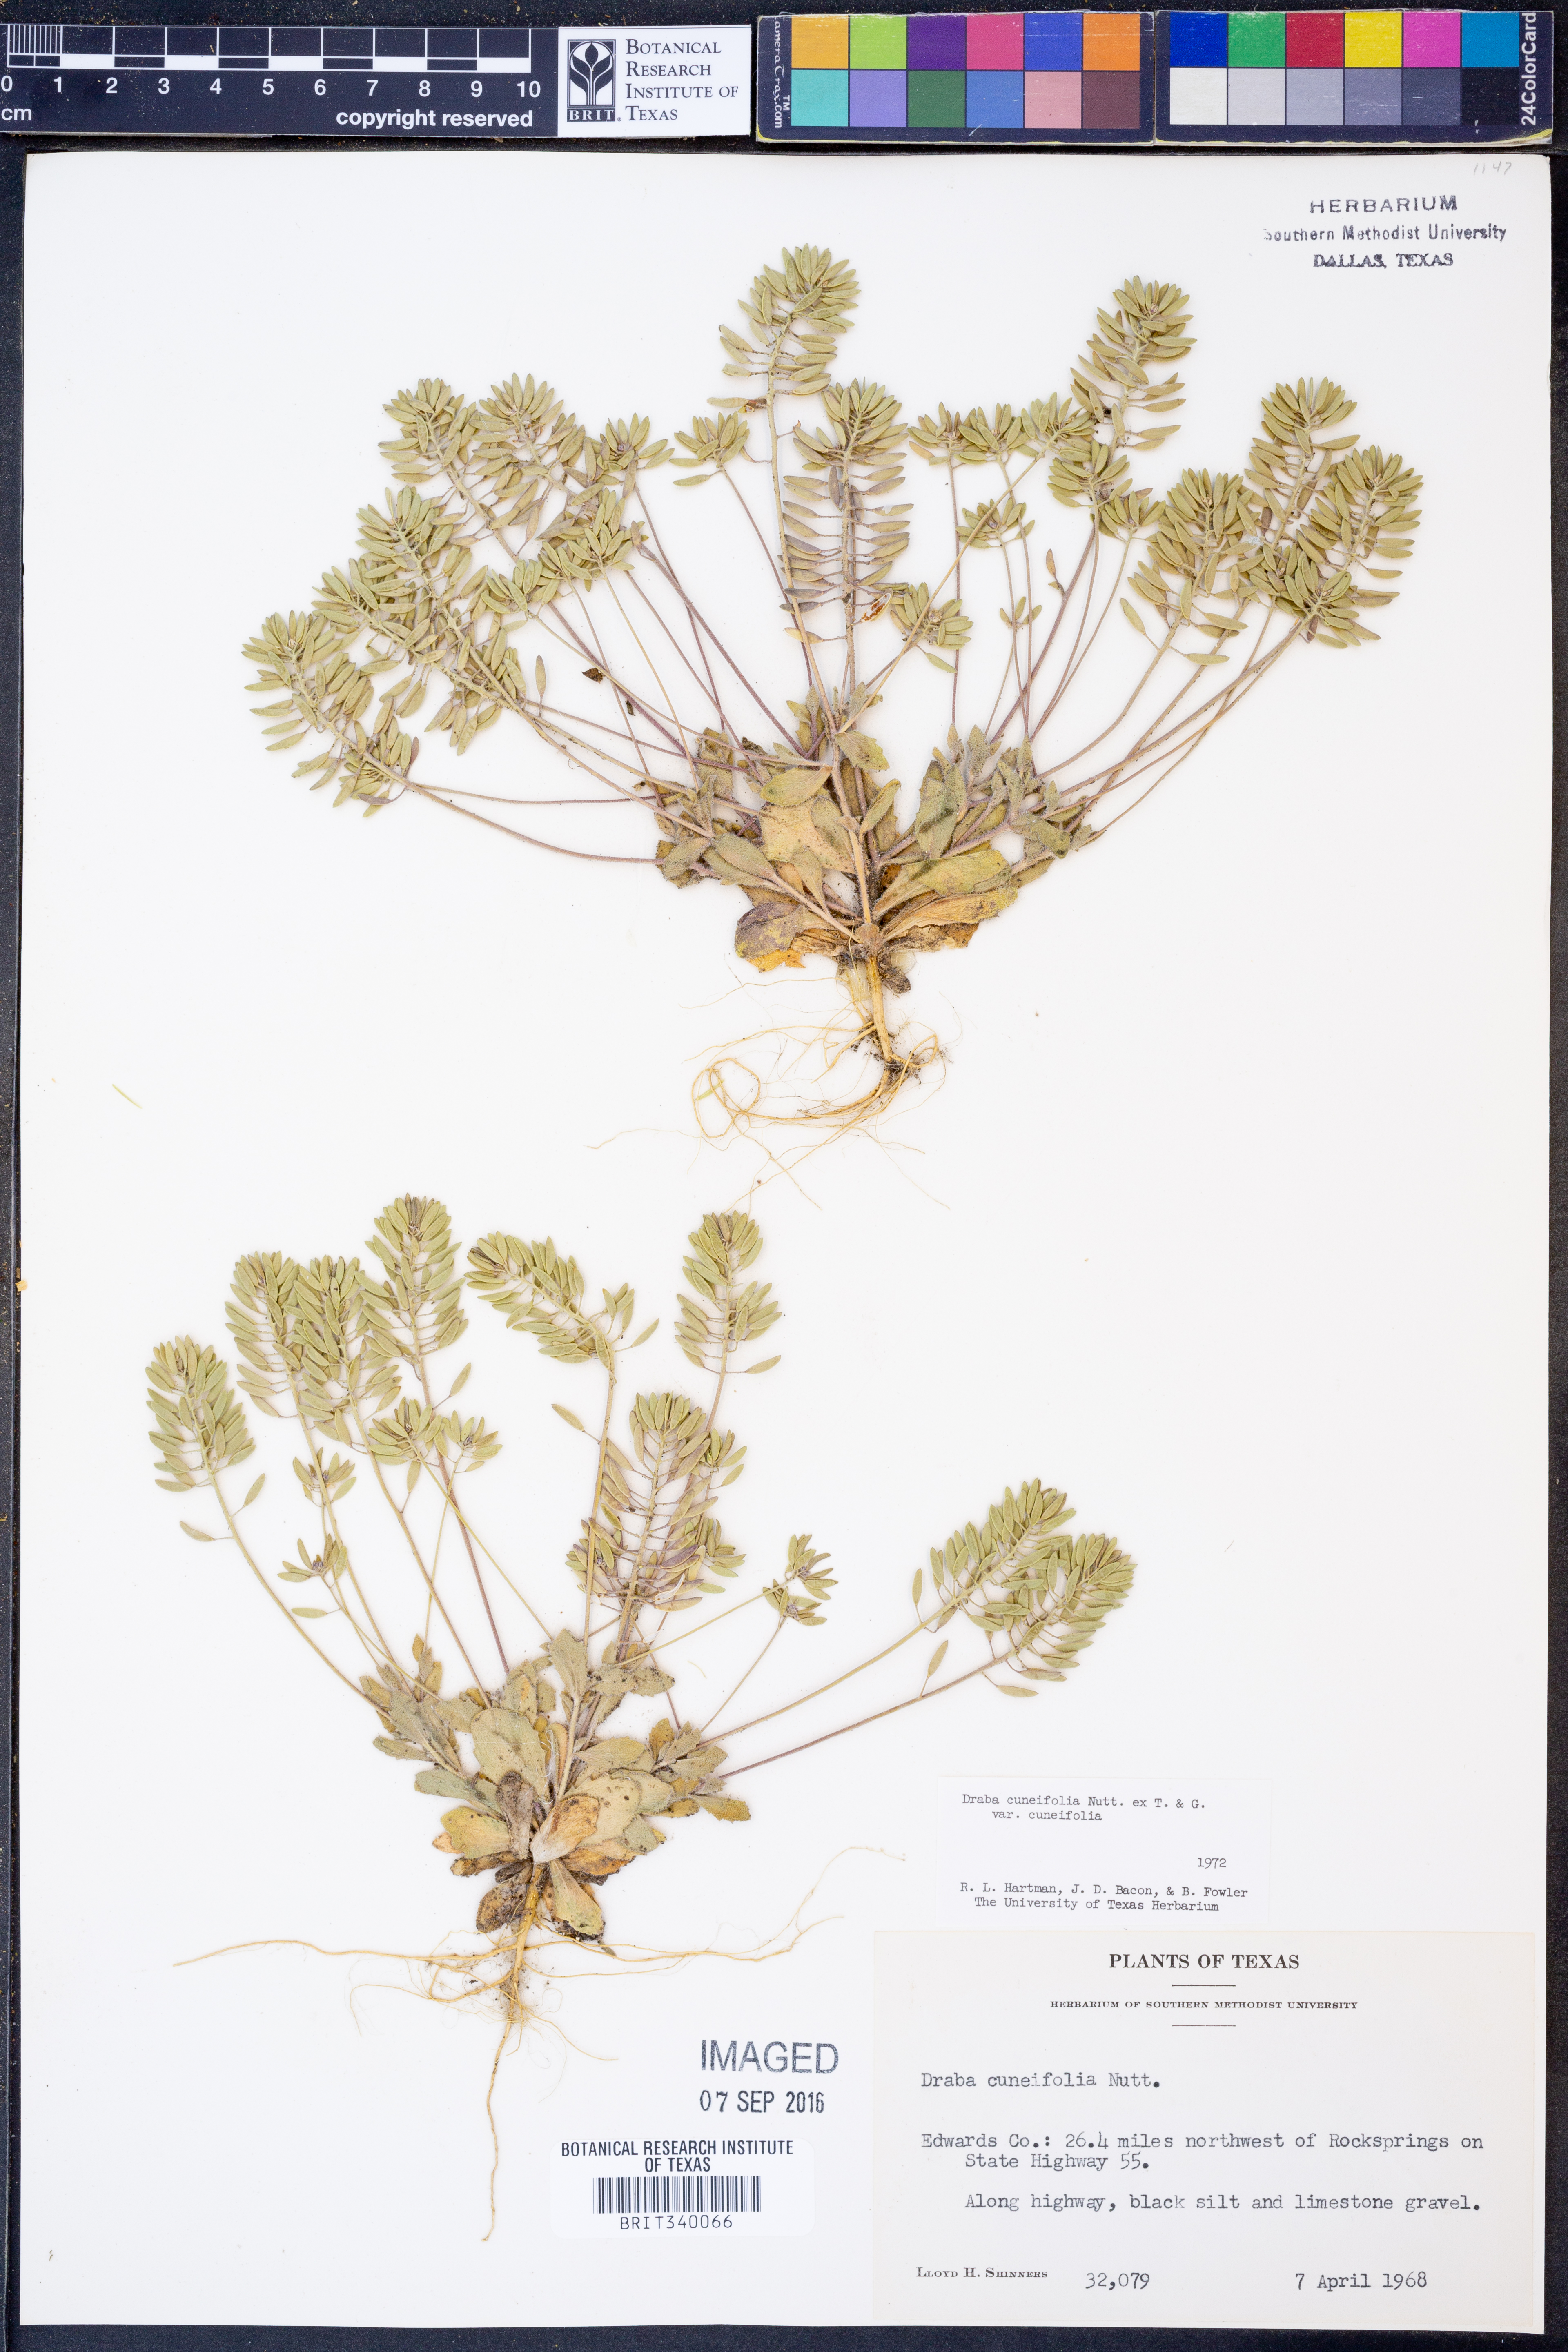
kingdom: Plantae
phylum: Tracheophyta
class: Magnoliopsida
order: Brassicales
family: Brassicaceae
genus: Tomostima
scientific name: Tomostima cuneifolia
